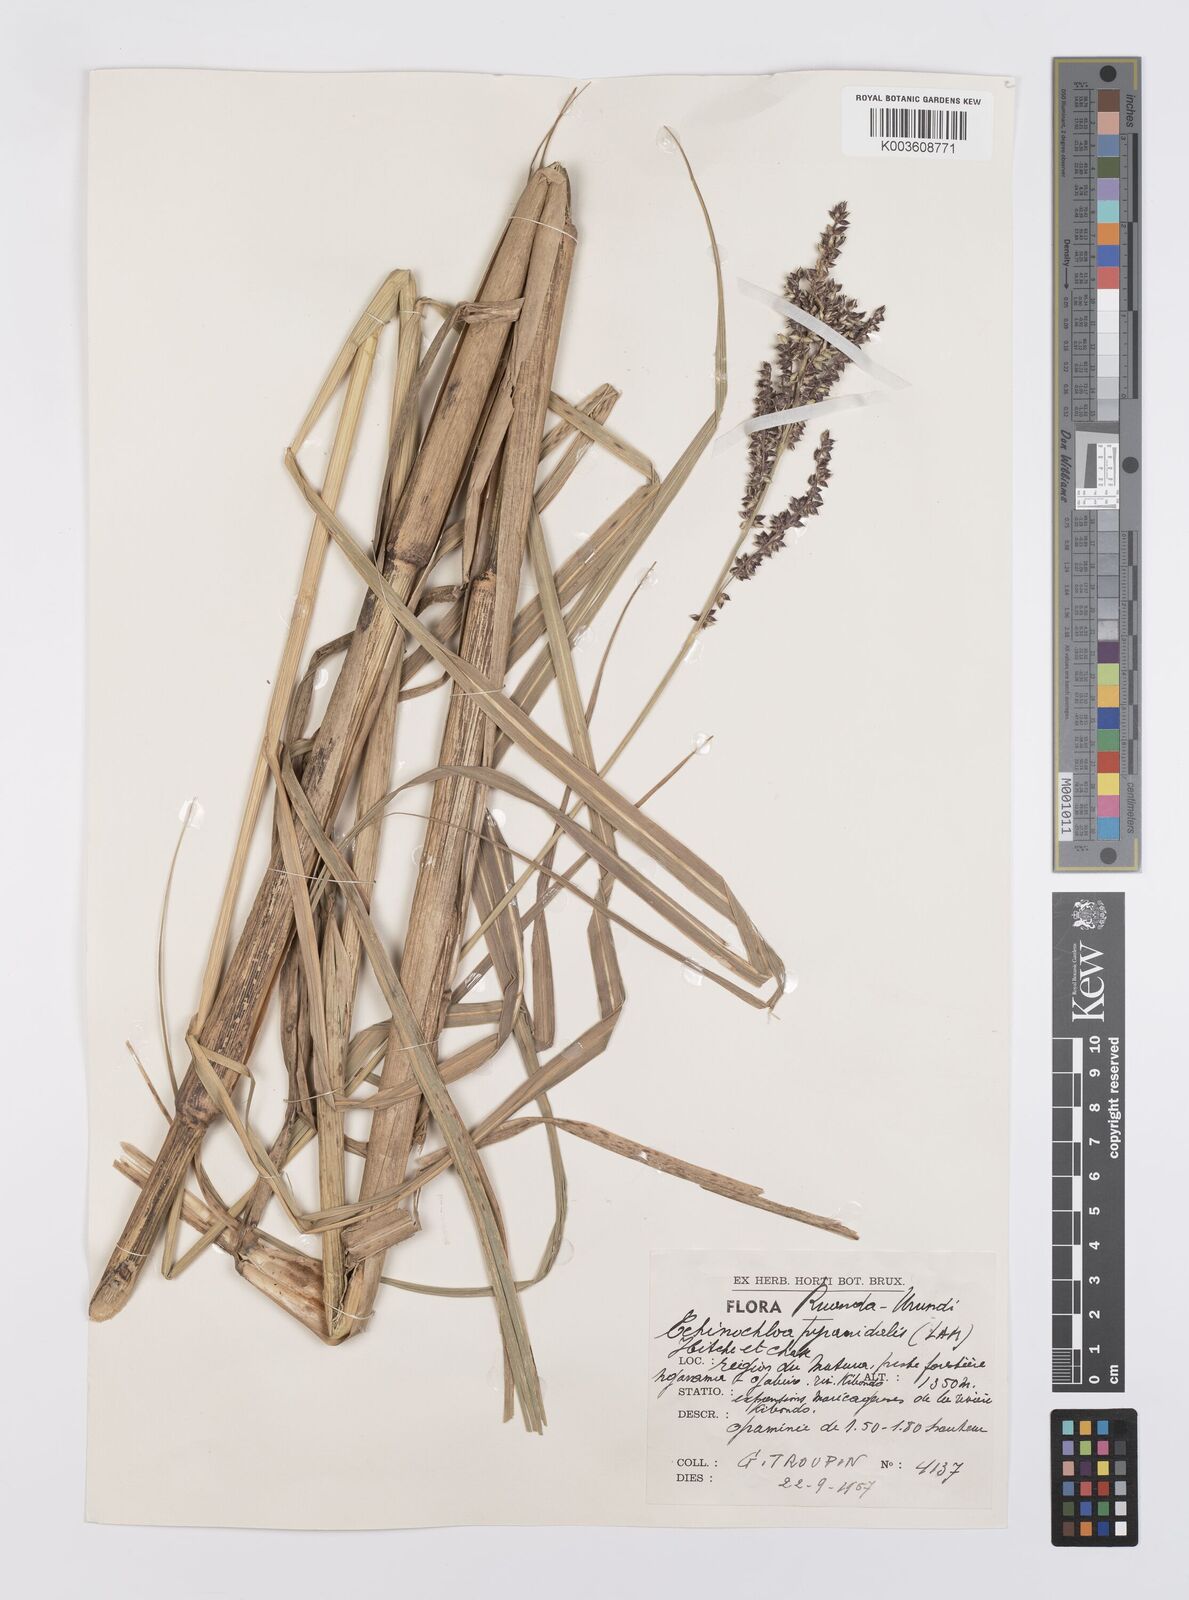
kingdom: Plantae
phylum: Tracheophyta
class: Liliopsida
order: Poales
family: Poaceae
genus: Echinochloa
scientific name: Echinochloa pyramidalis
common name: Antelope grass
